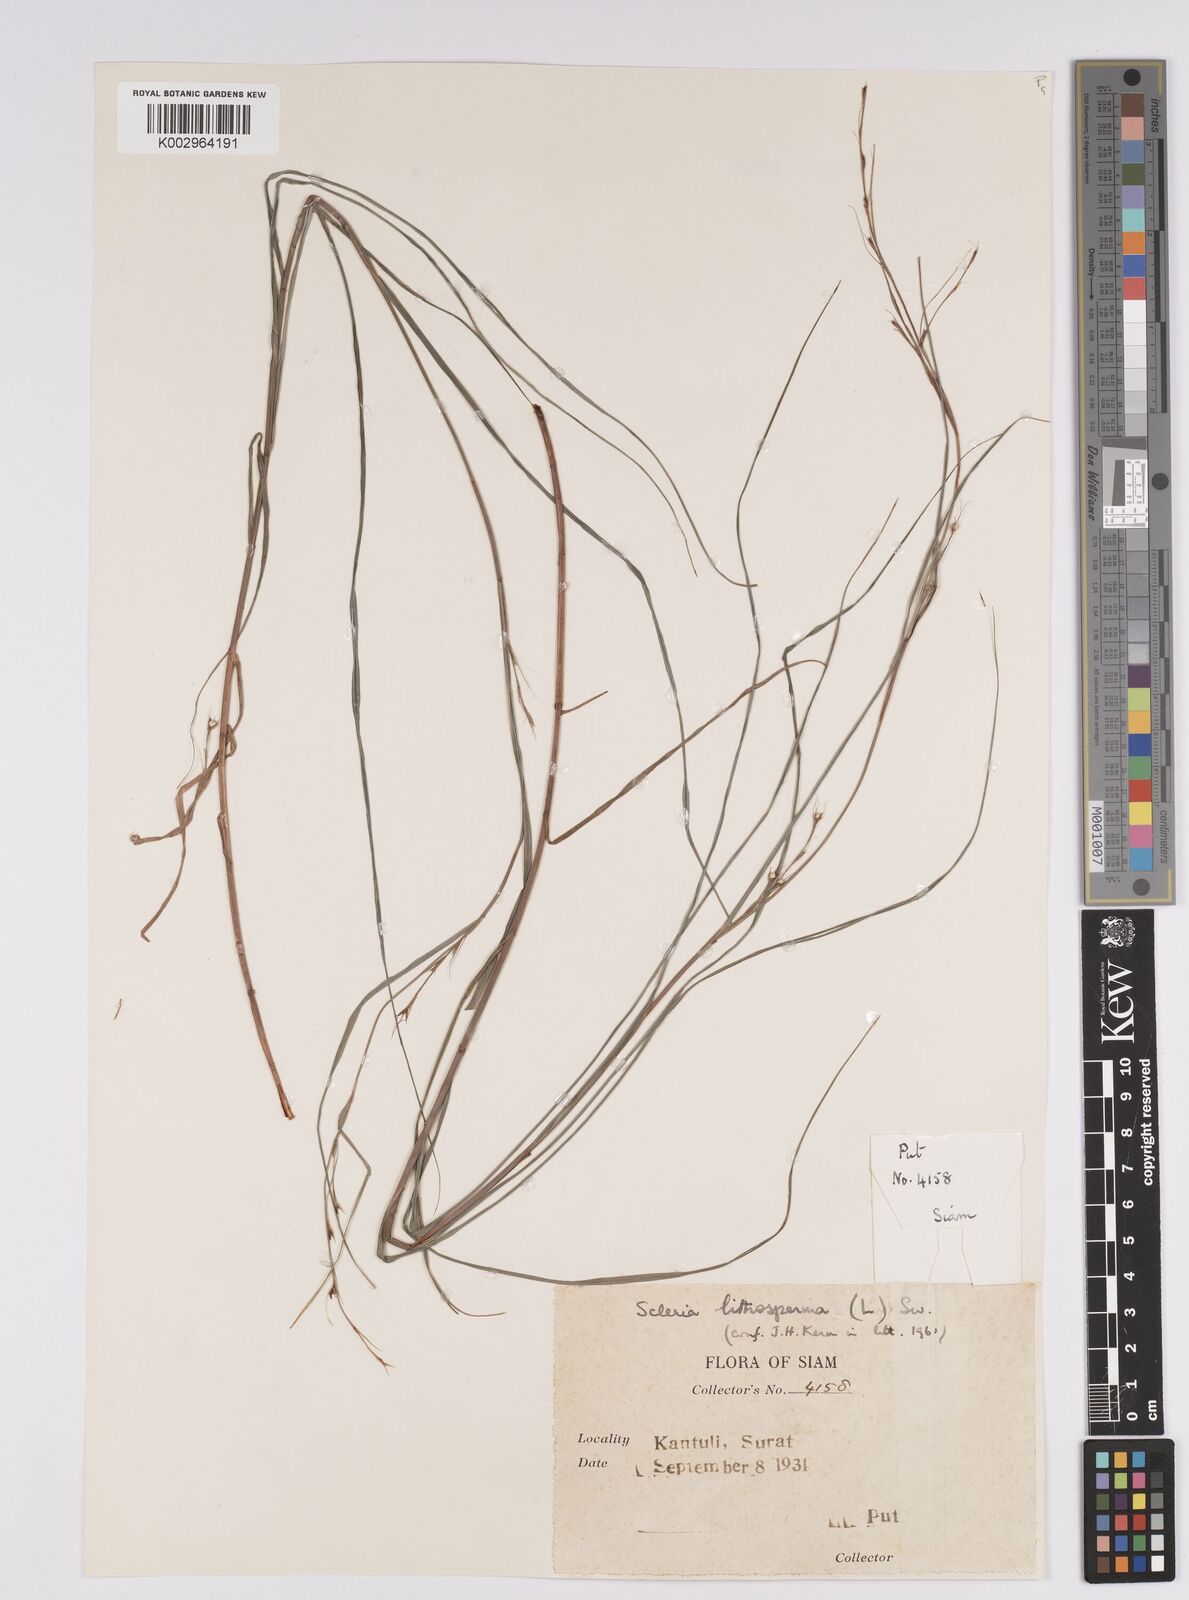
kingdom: Plantae
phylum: Tracheophyta
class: Liliopsida
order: Poales
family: Cyperaceae
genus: Scleria
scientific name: Scleria lithosperma
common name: Florida keys nut-rush
